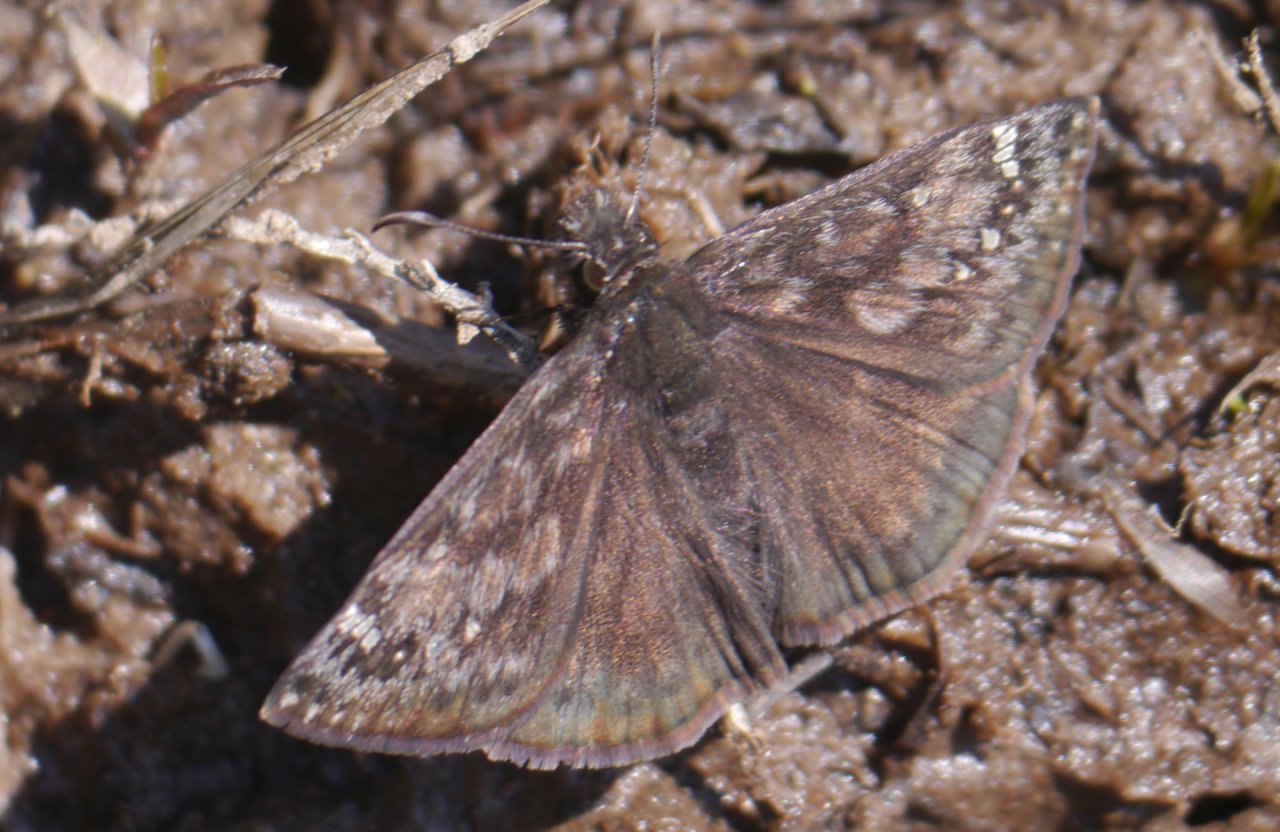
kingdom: Animalia
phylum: Arthropoda
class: Insecta
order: Lepidoptera
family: Hesperiidae
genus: Gesta
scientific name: Gesta
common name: Juvenal's Duskywing
